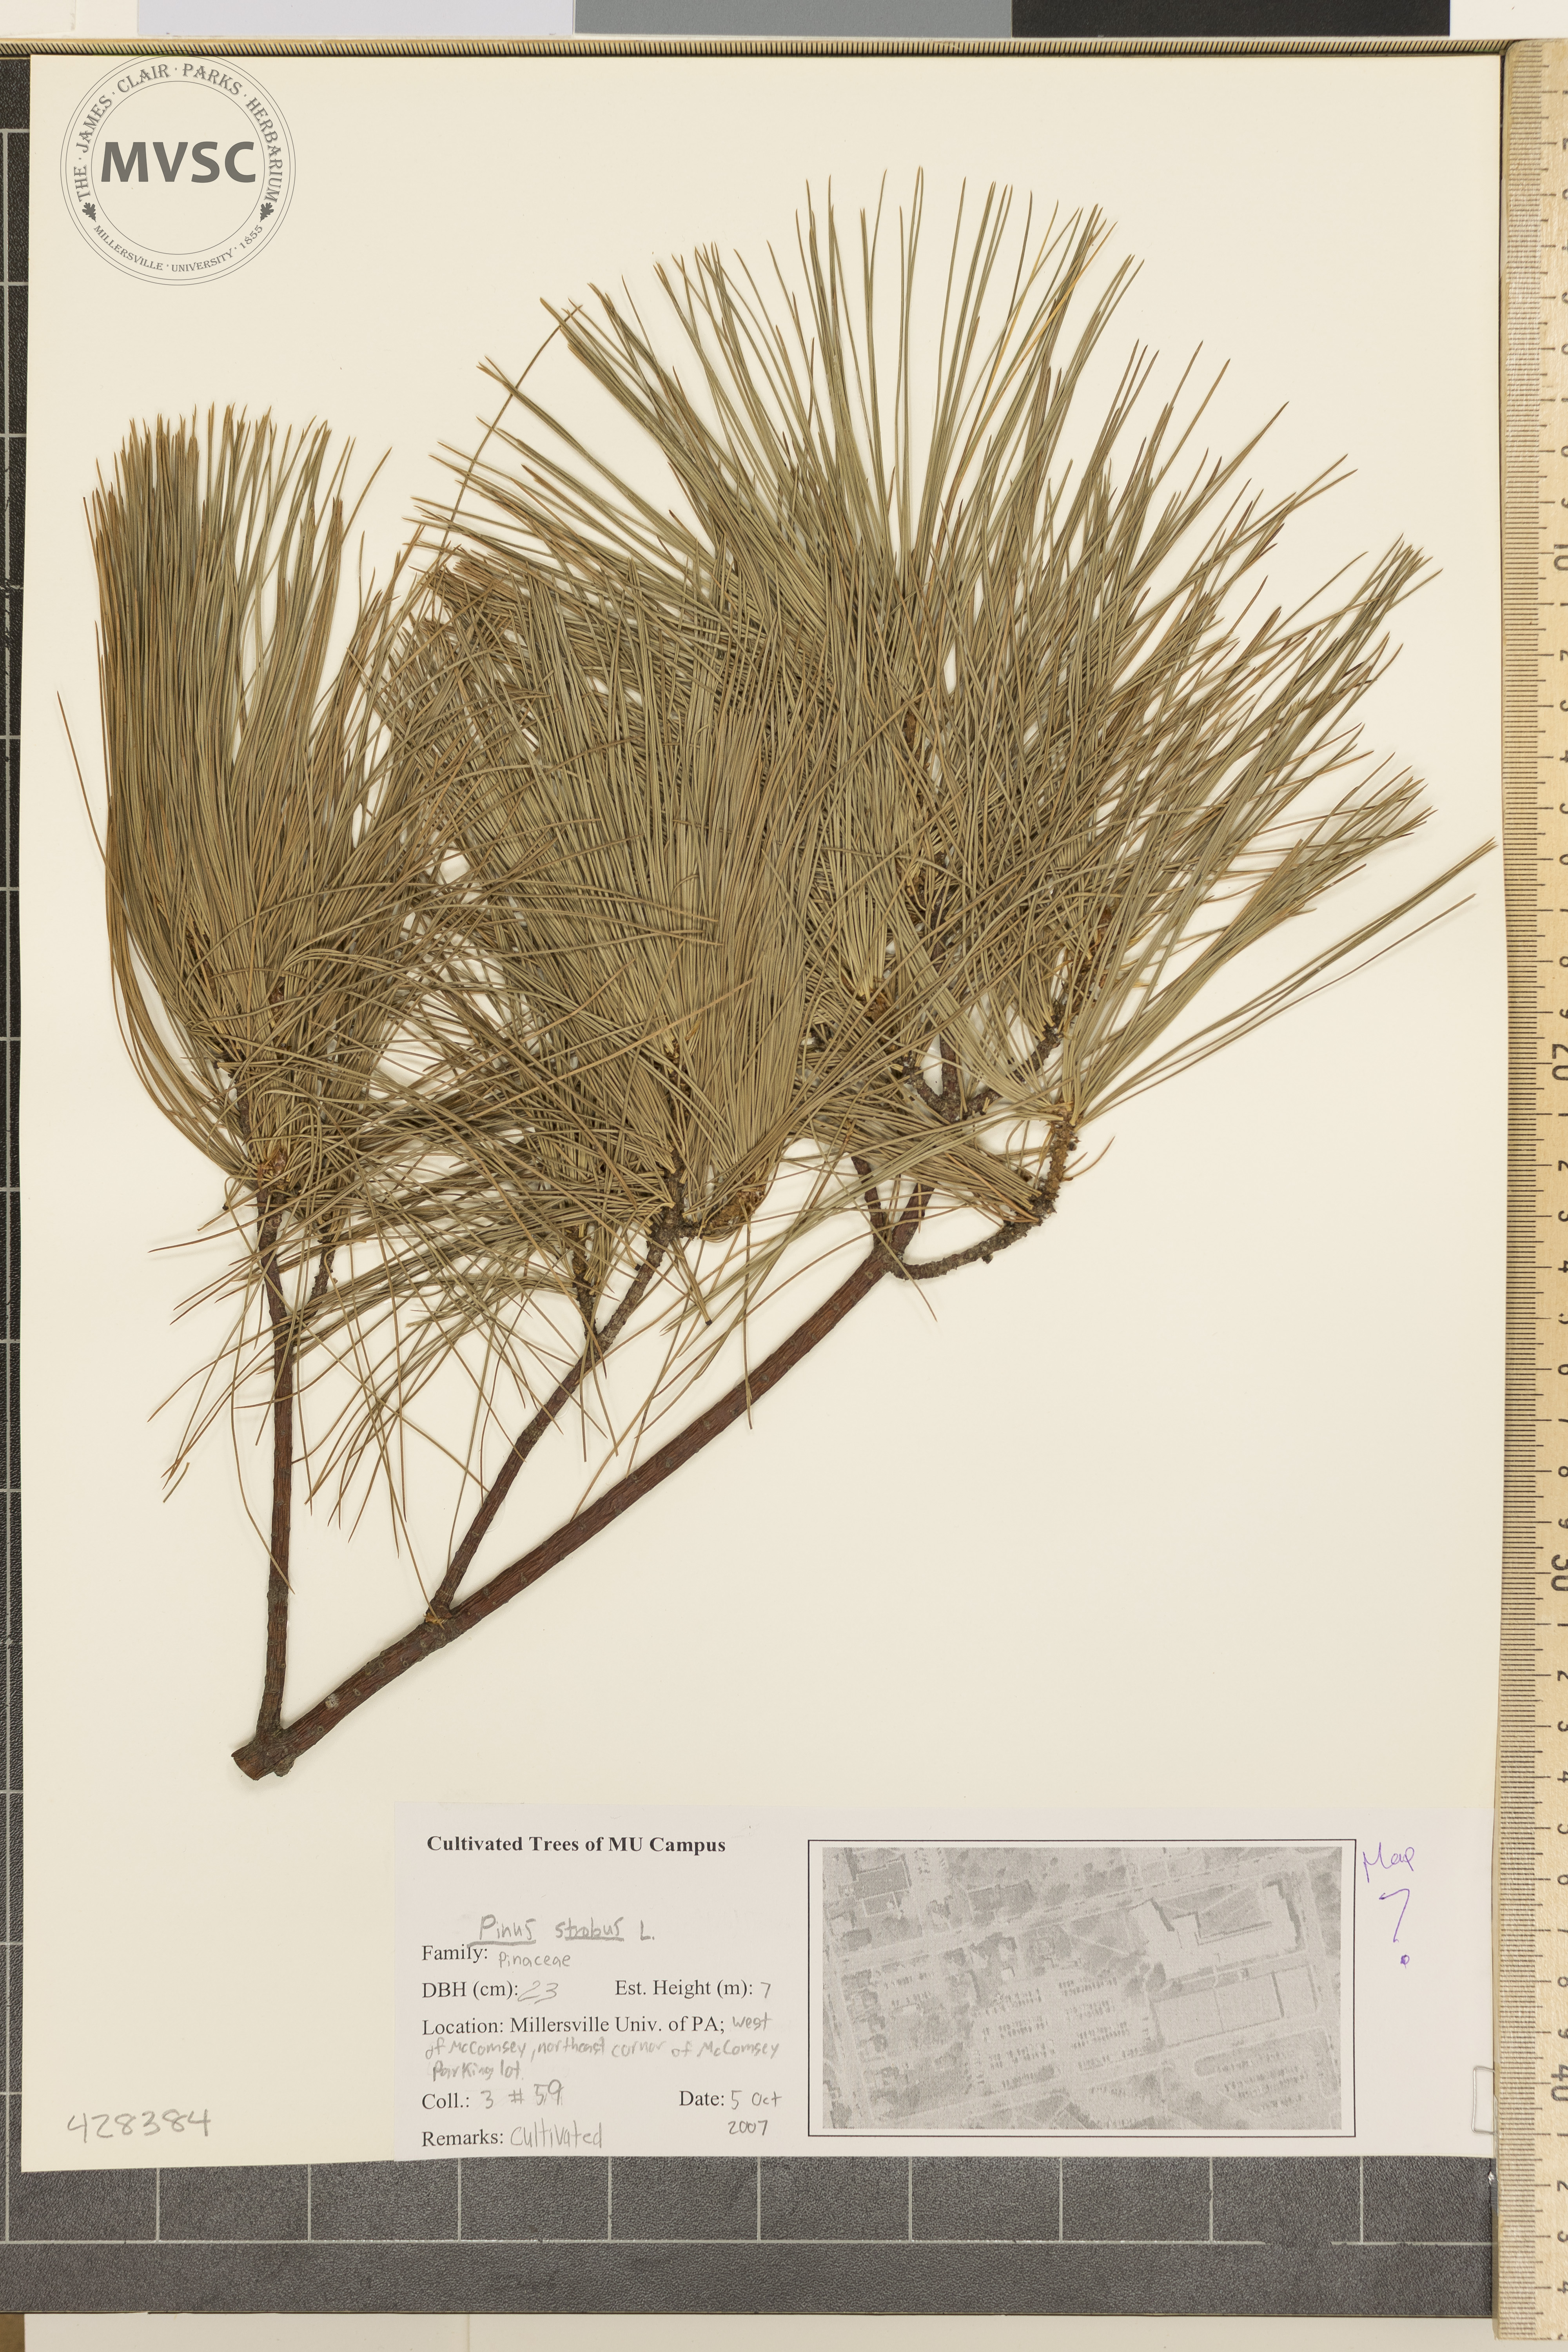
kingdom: Plantae
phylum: Tracheophyta
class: Pinopsida
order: Pinales
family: Pinaceae
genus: Pinus
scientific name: Pinus strobus
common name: Eastern White Pine
